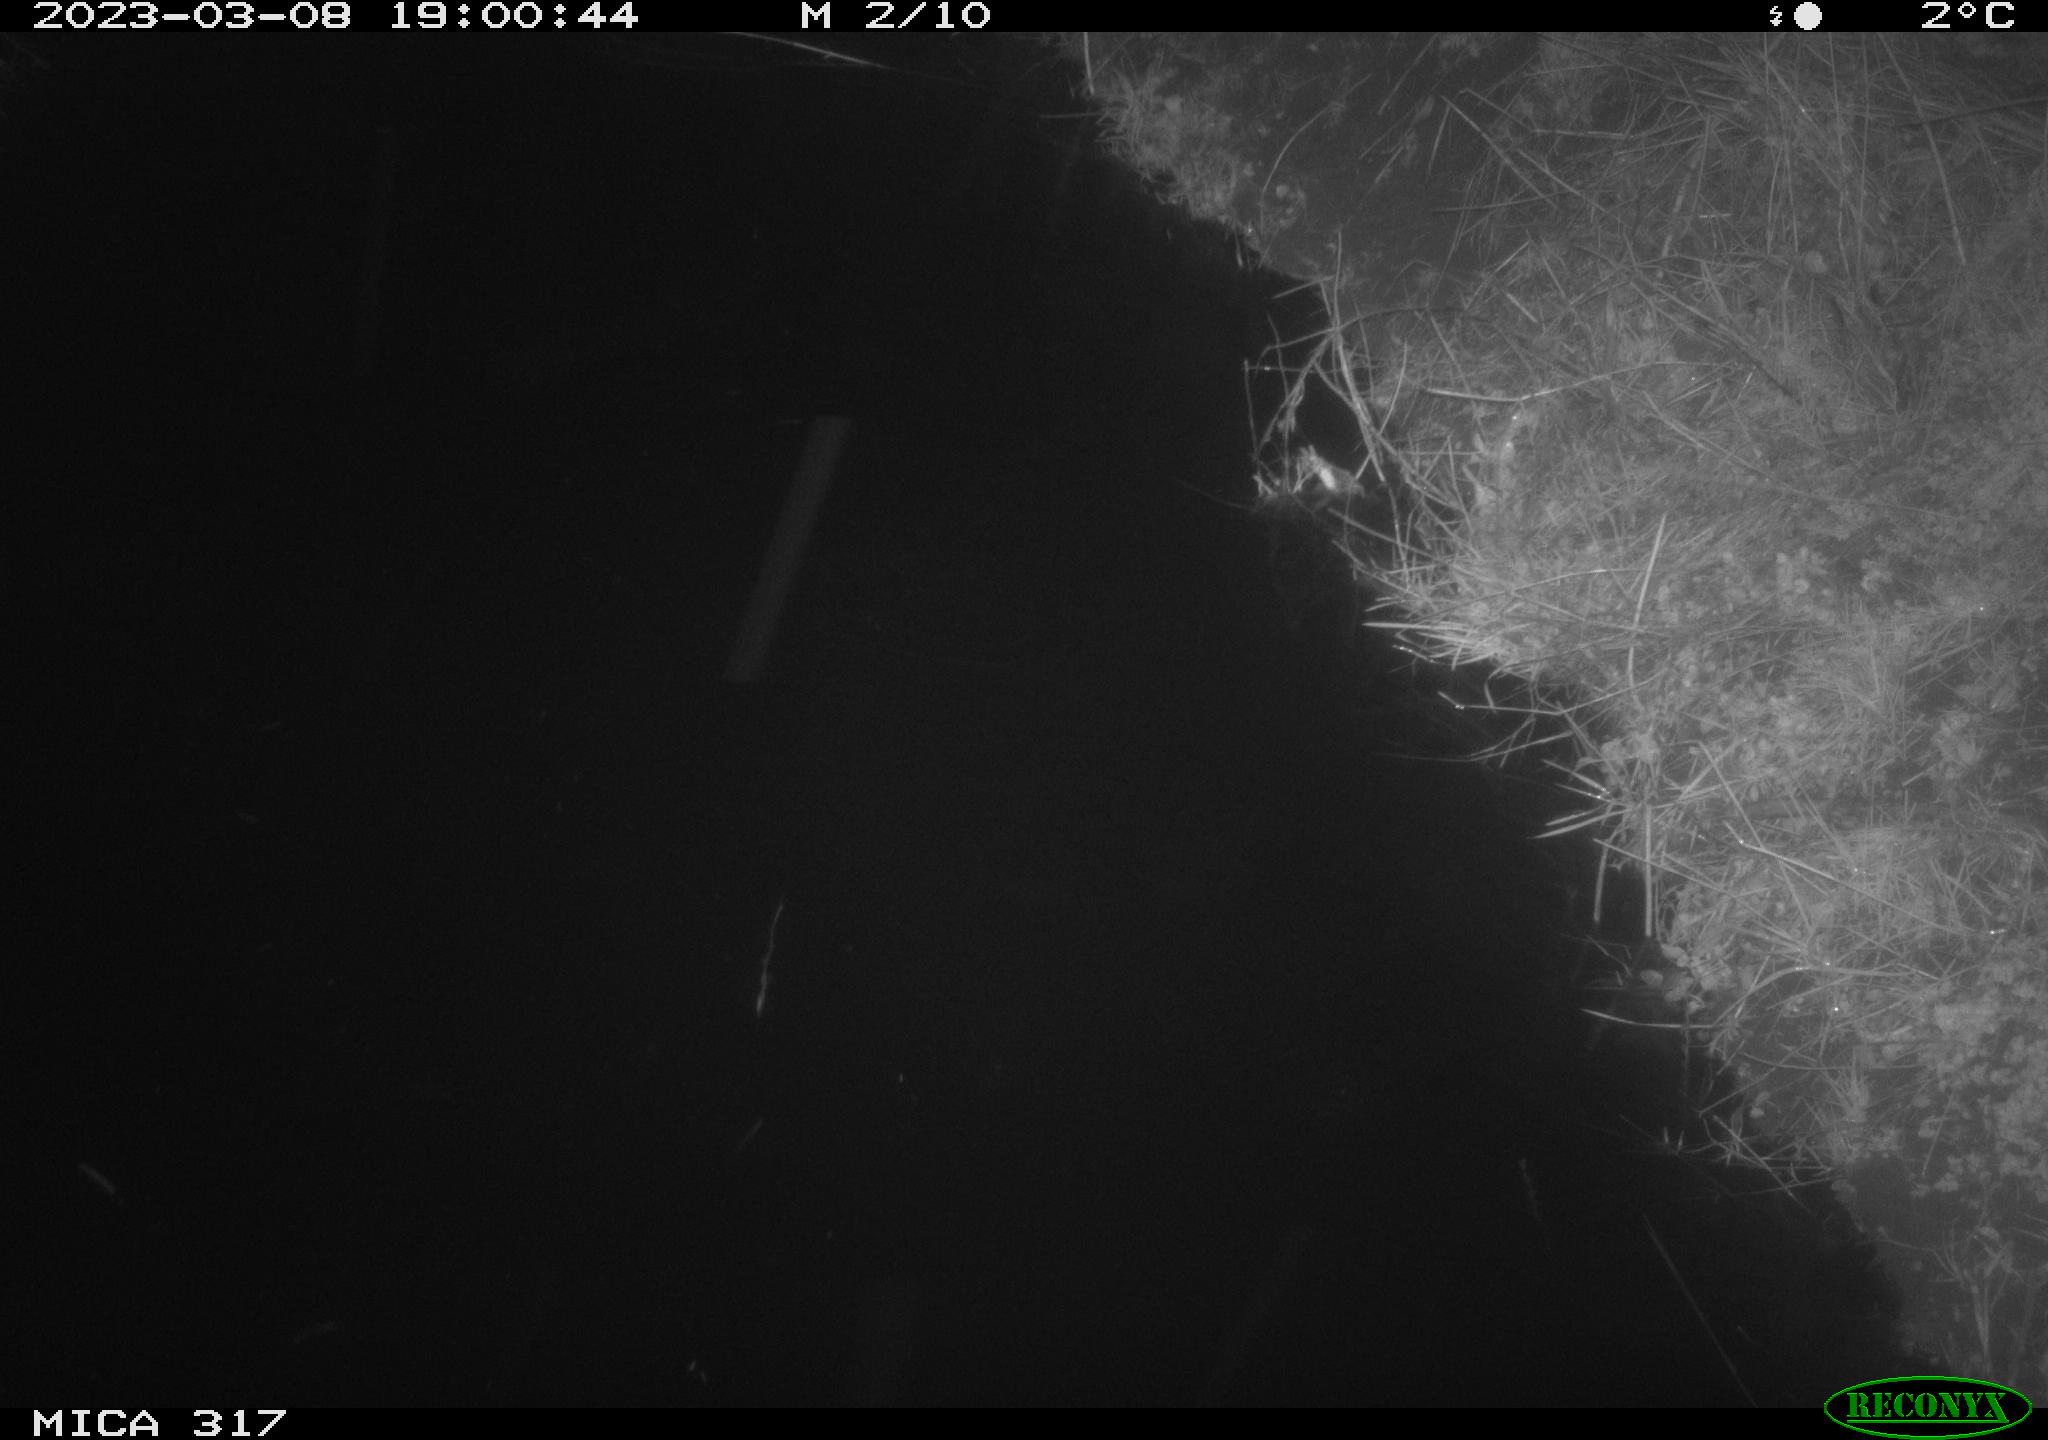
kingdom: Animalia
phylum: Chordata
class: Aves
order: Anseriformes
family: Anatidae
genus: Anas
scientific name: Anas
